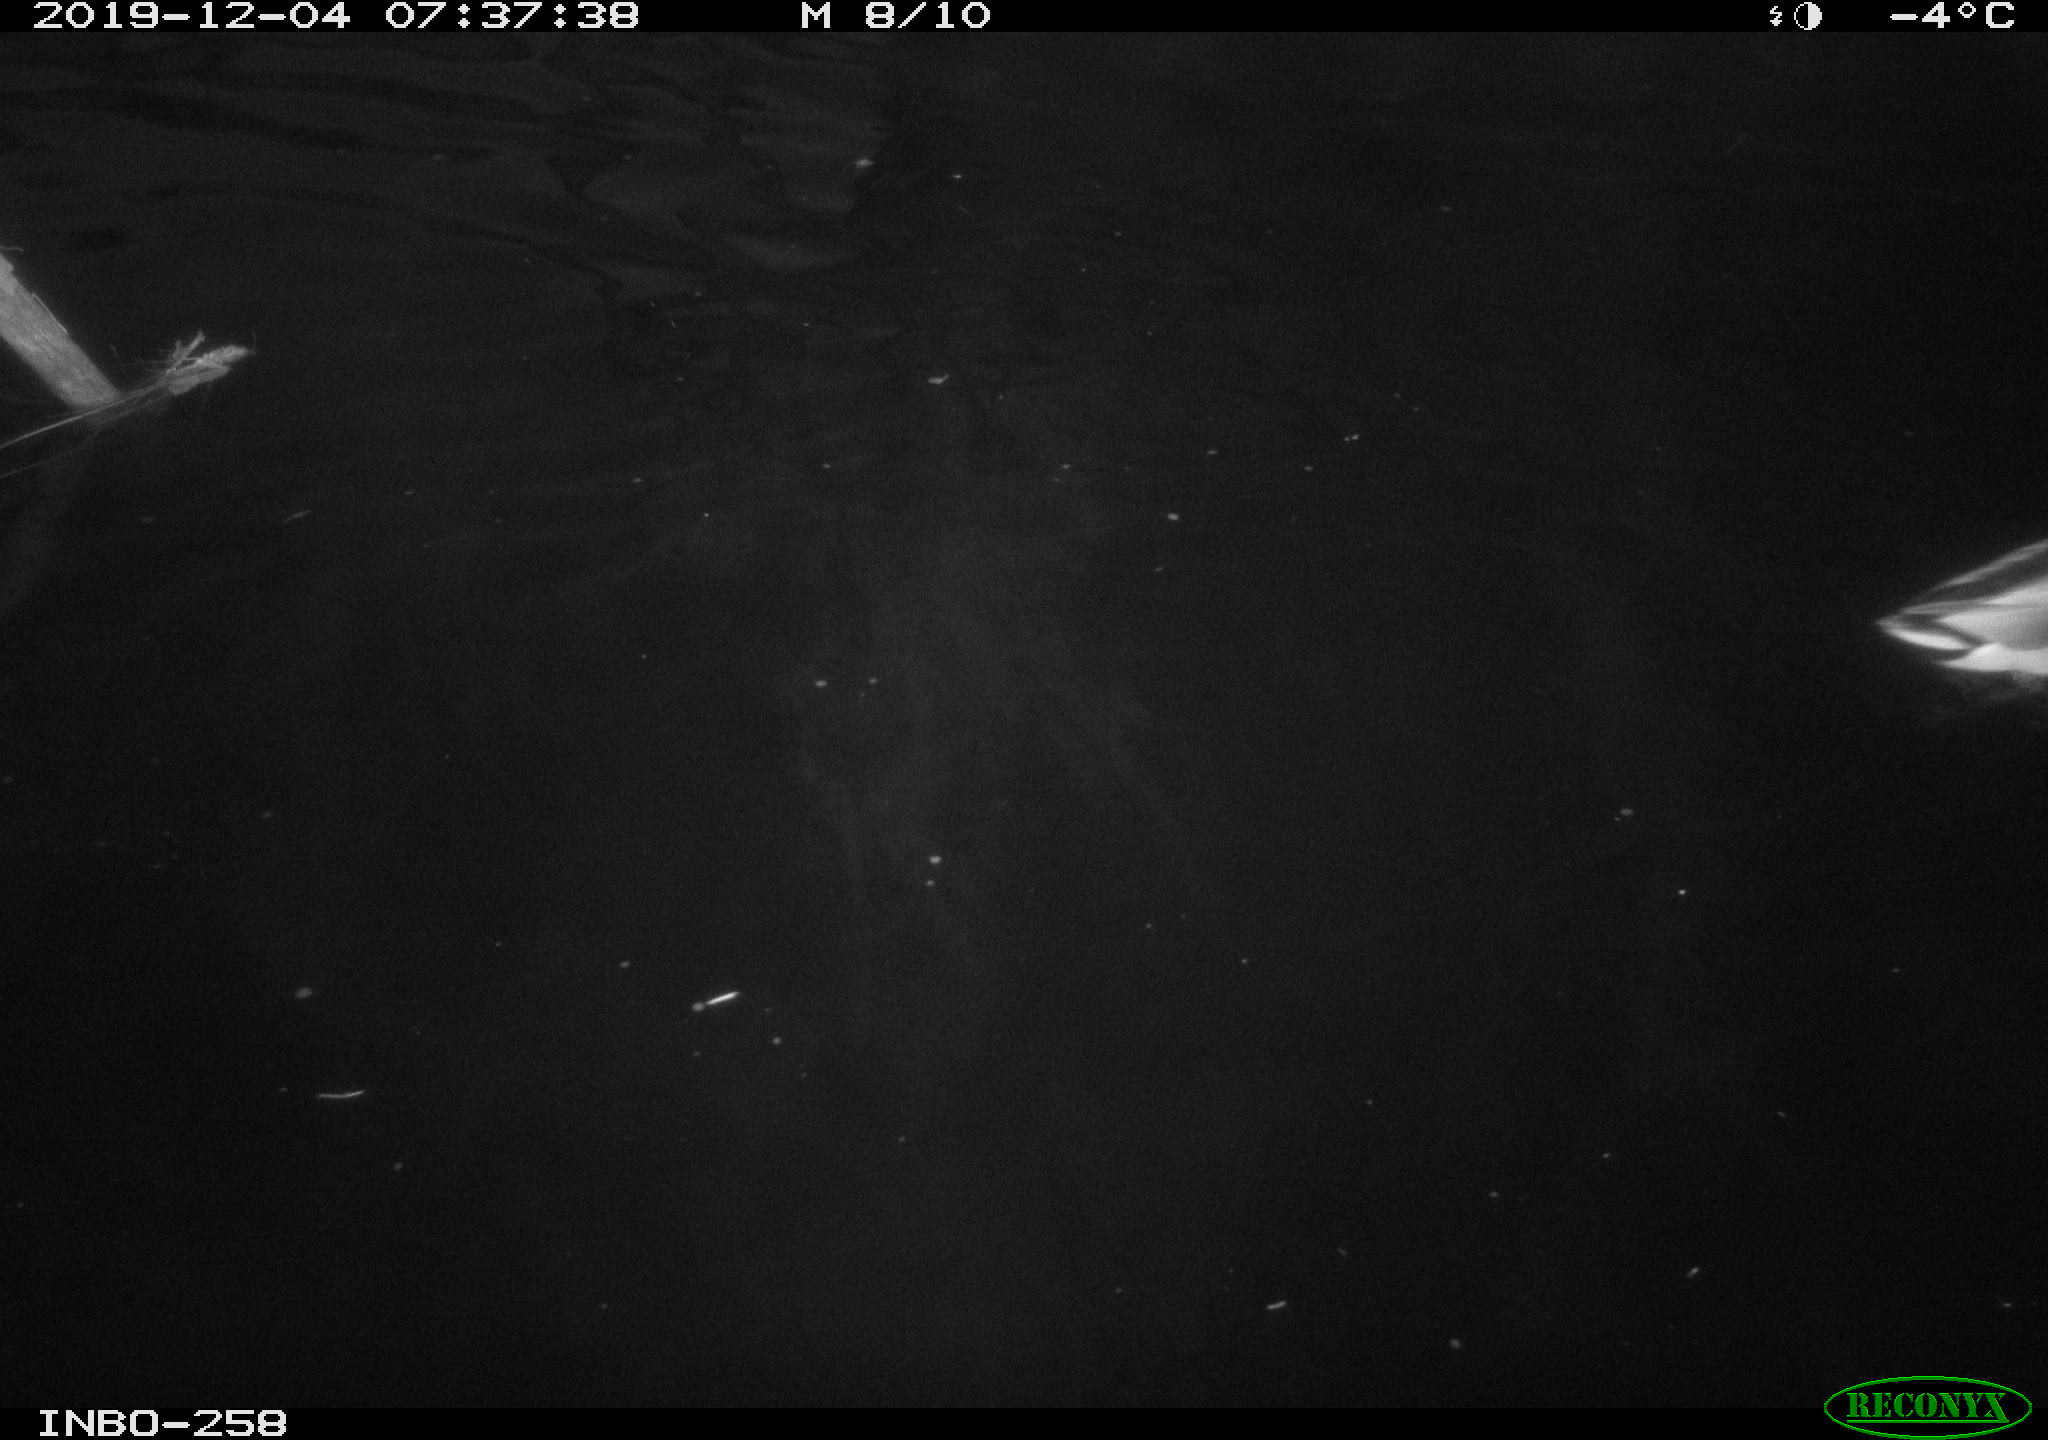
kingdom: Animalia
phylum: Chordata
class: Aves
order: Anseriformes
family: Anatidae
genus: Anas
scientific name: Anas platyrhynchos
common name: Mallard
